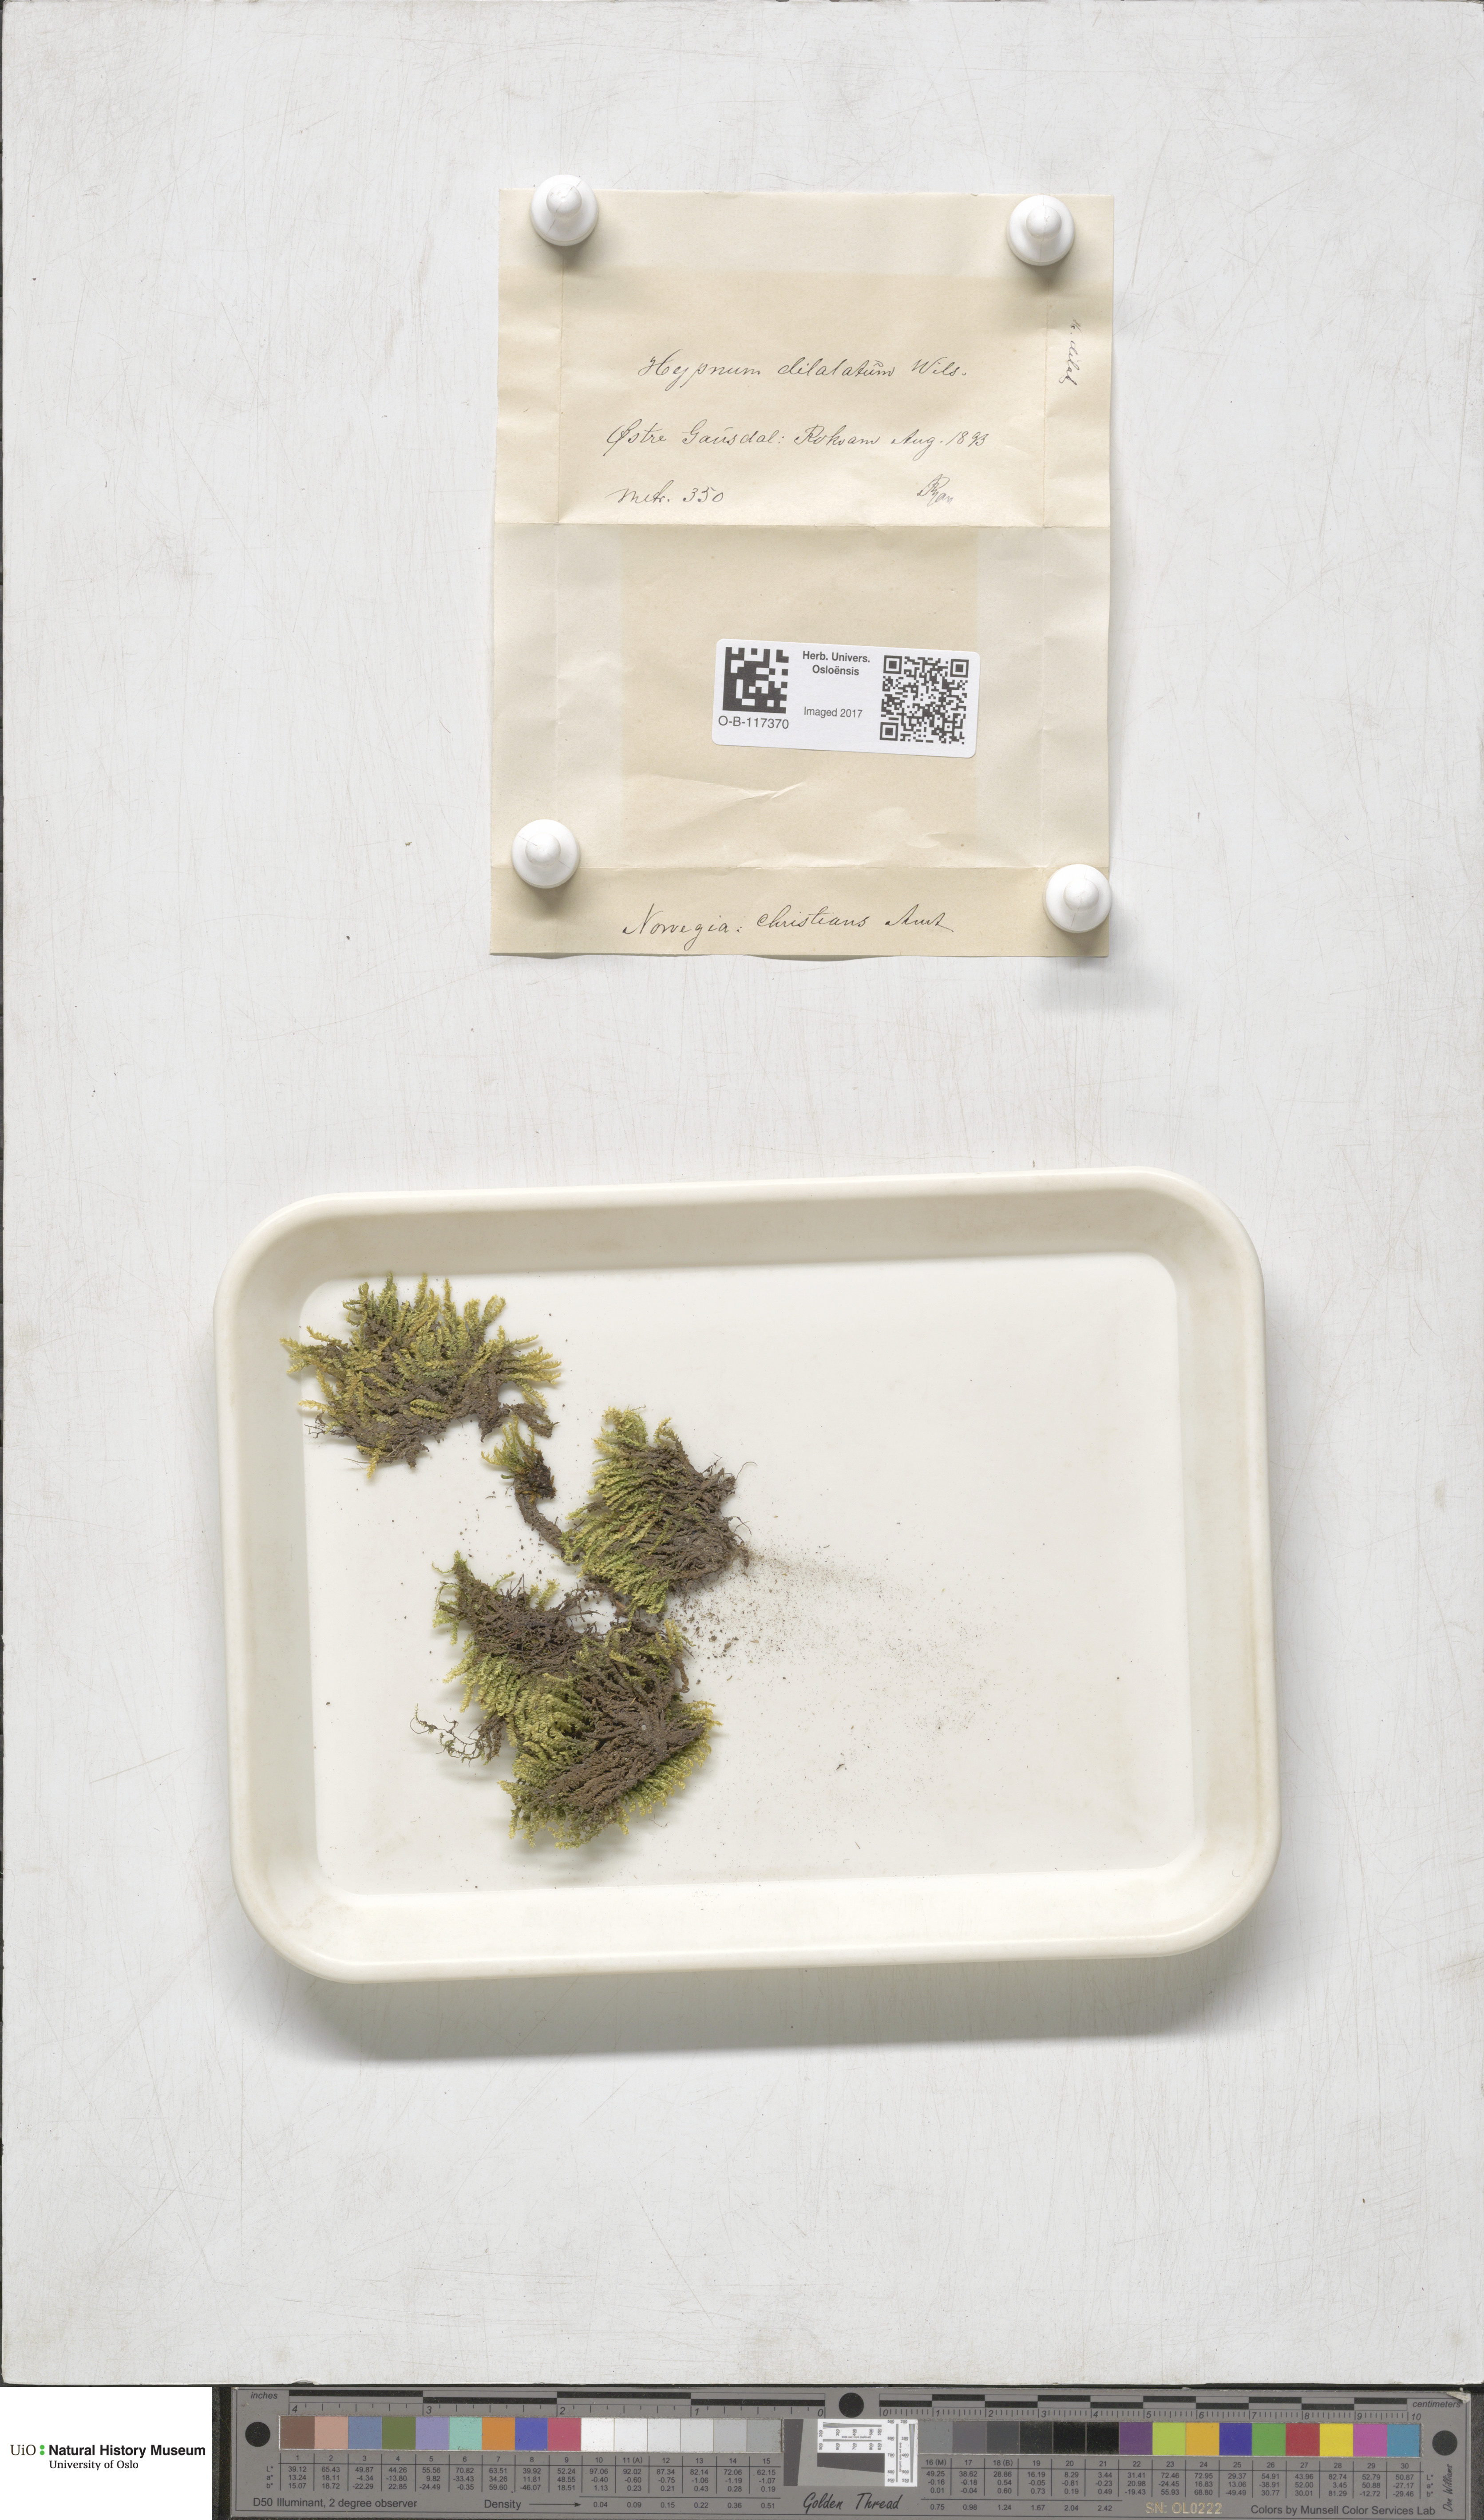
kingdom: Plantae
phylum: Bryophyta
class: Bryopsida
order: Hypnales
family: Amblystegiaceae
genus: Platyhypnum
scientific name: Platyhypnum duriusculum
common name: Broad-leaved brook-moss
